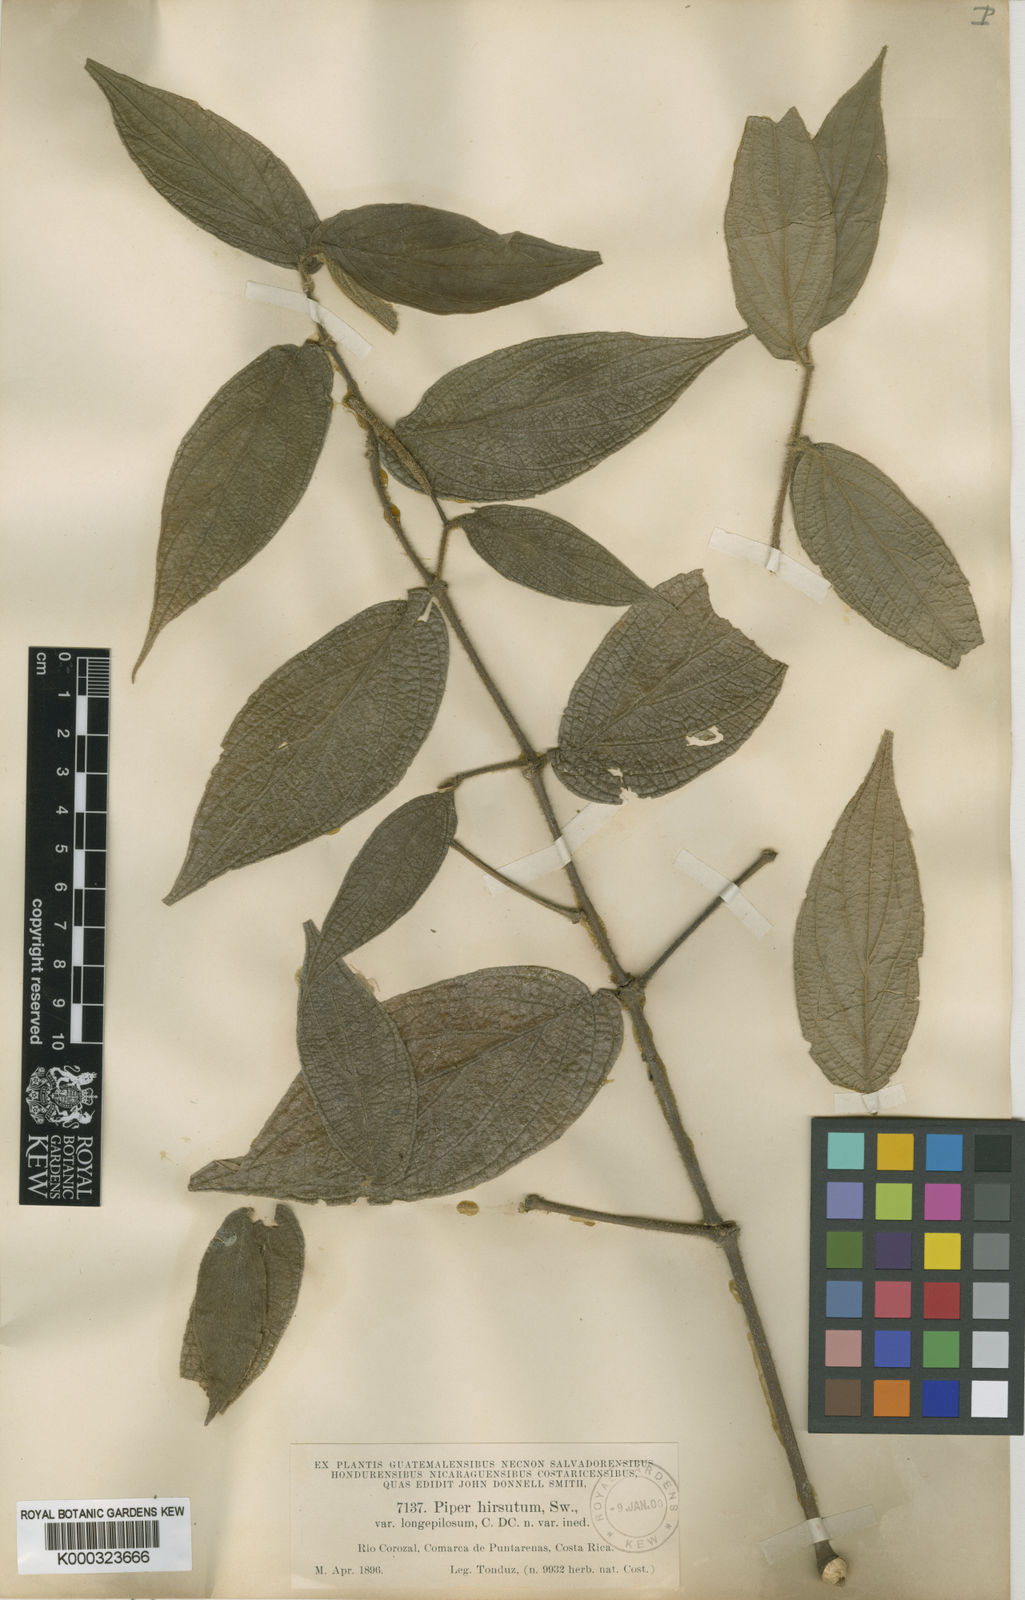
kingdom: Plantae
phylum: Tracheophyta
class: Magnoliopsida
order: Piperales
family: Piperaceae
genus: Piper
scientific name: Piper comatum
